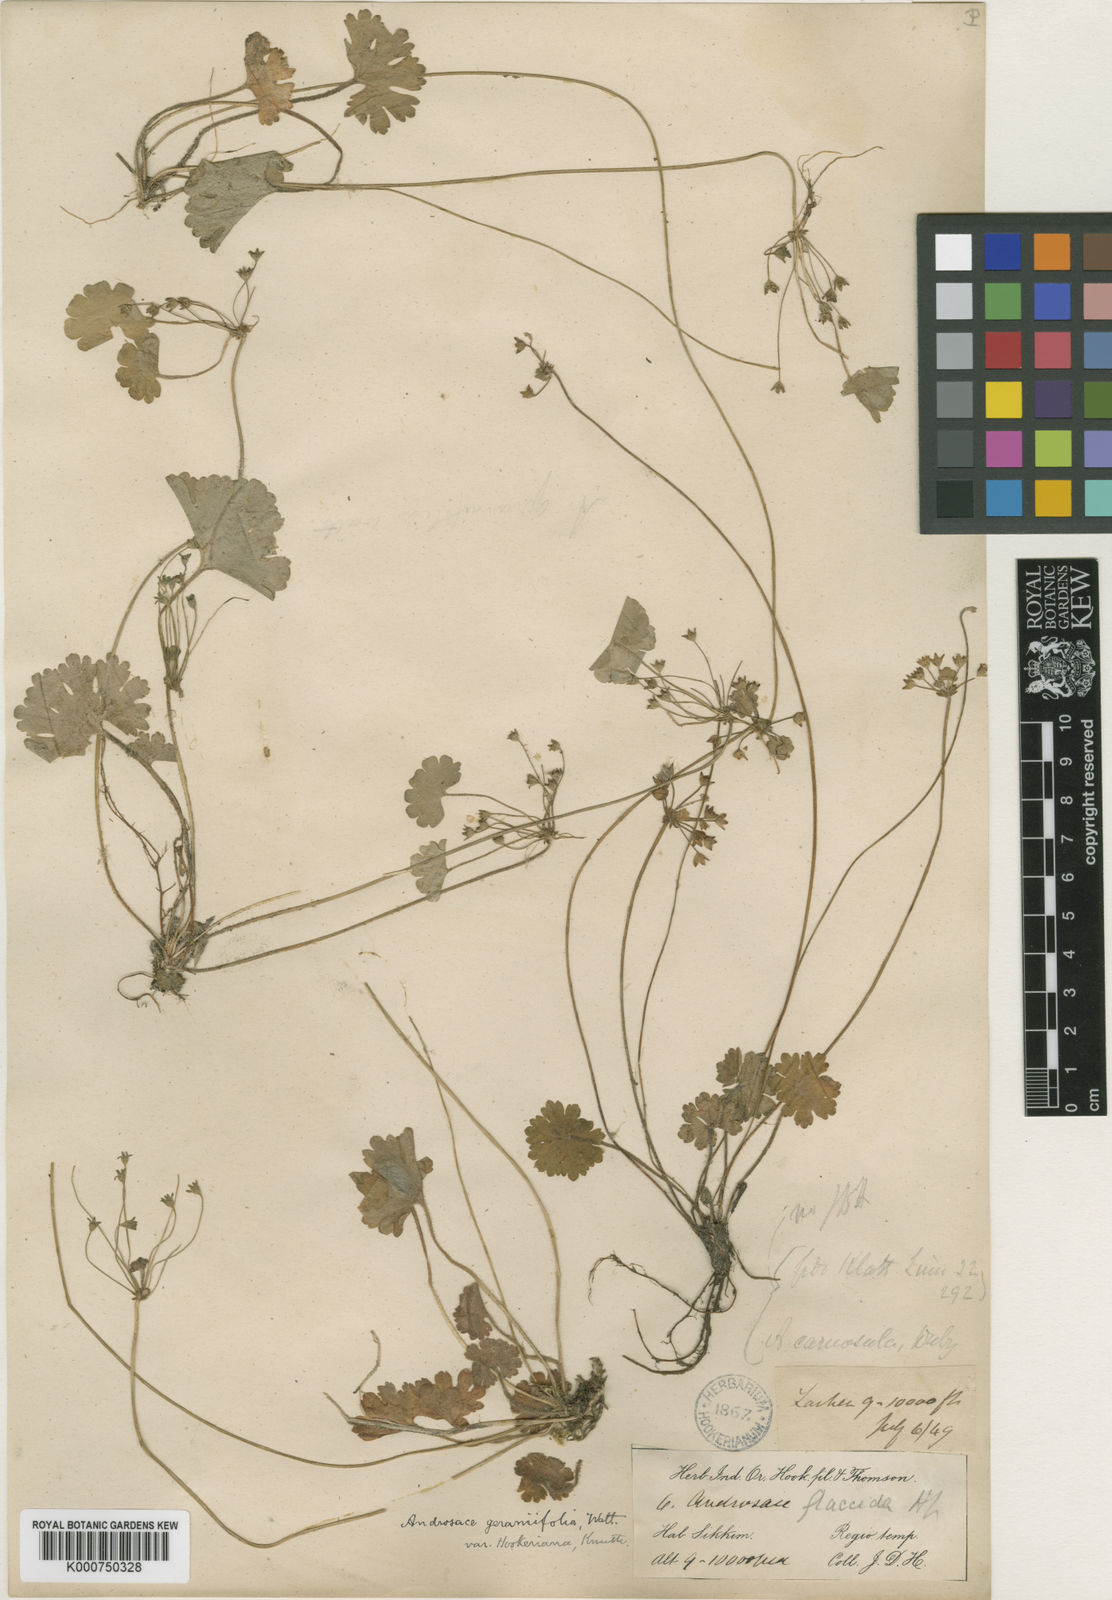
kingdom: Plantae
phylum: Tracheophyta
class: Magnoliopsida
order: Ericales
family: Primulaceae
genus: Androsace
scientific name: Androsace geraniifolia
